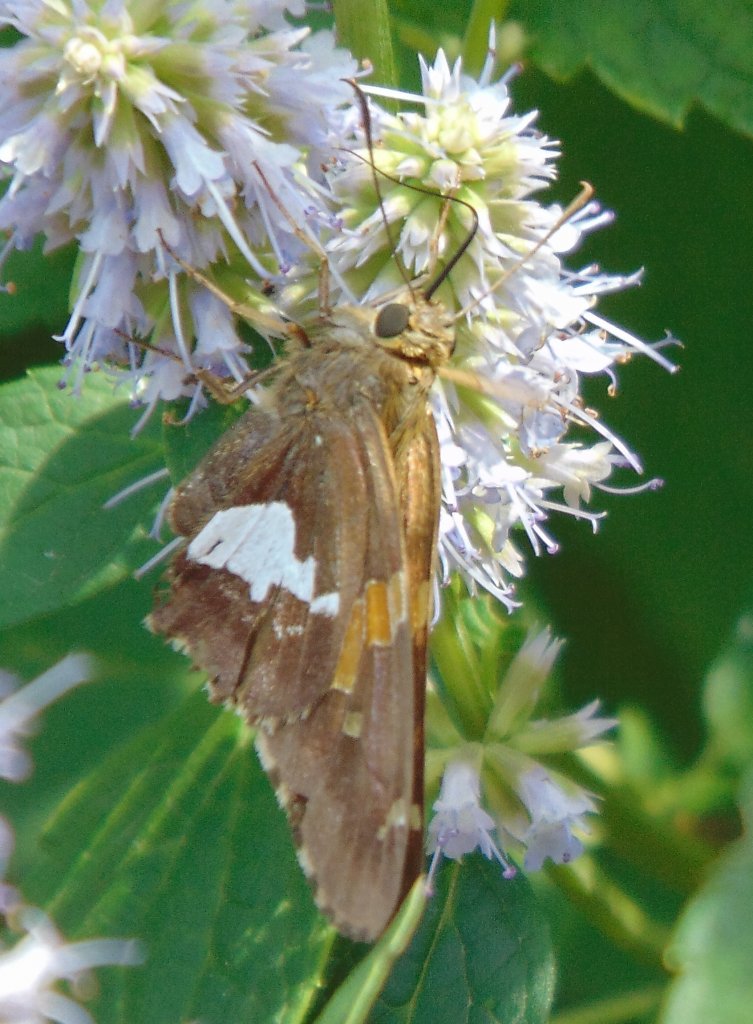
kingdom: Animalia
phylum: Arthropoda
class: Insecta
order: Lepidoptera
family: Hesperiidae
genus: Epargyreus
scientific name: Epargyreus clarus
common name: Silver-spotted Skipper
